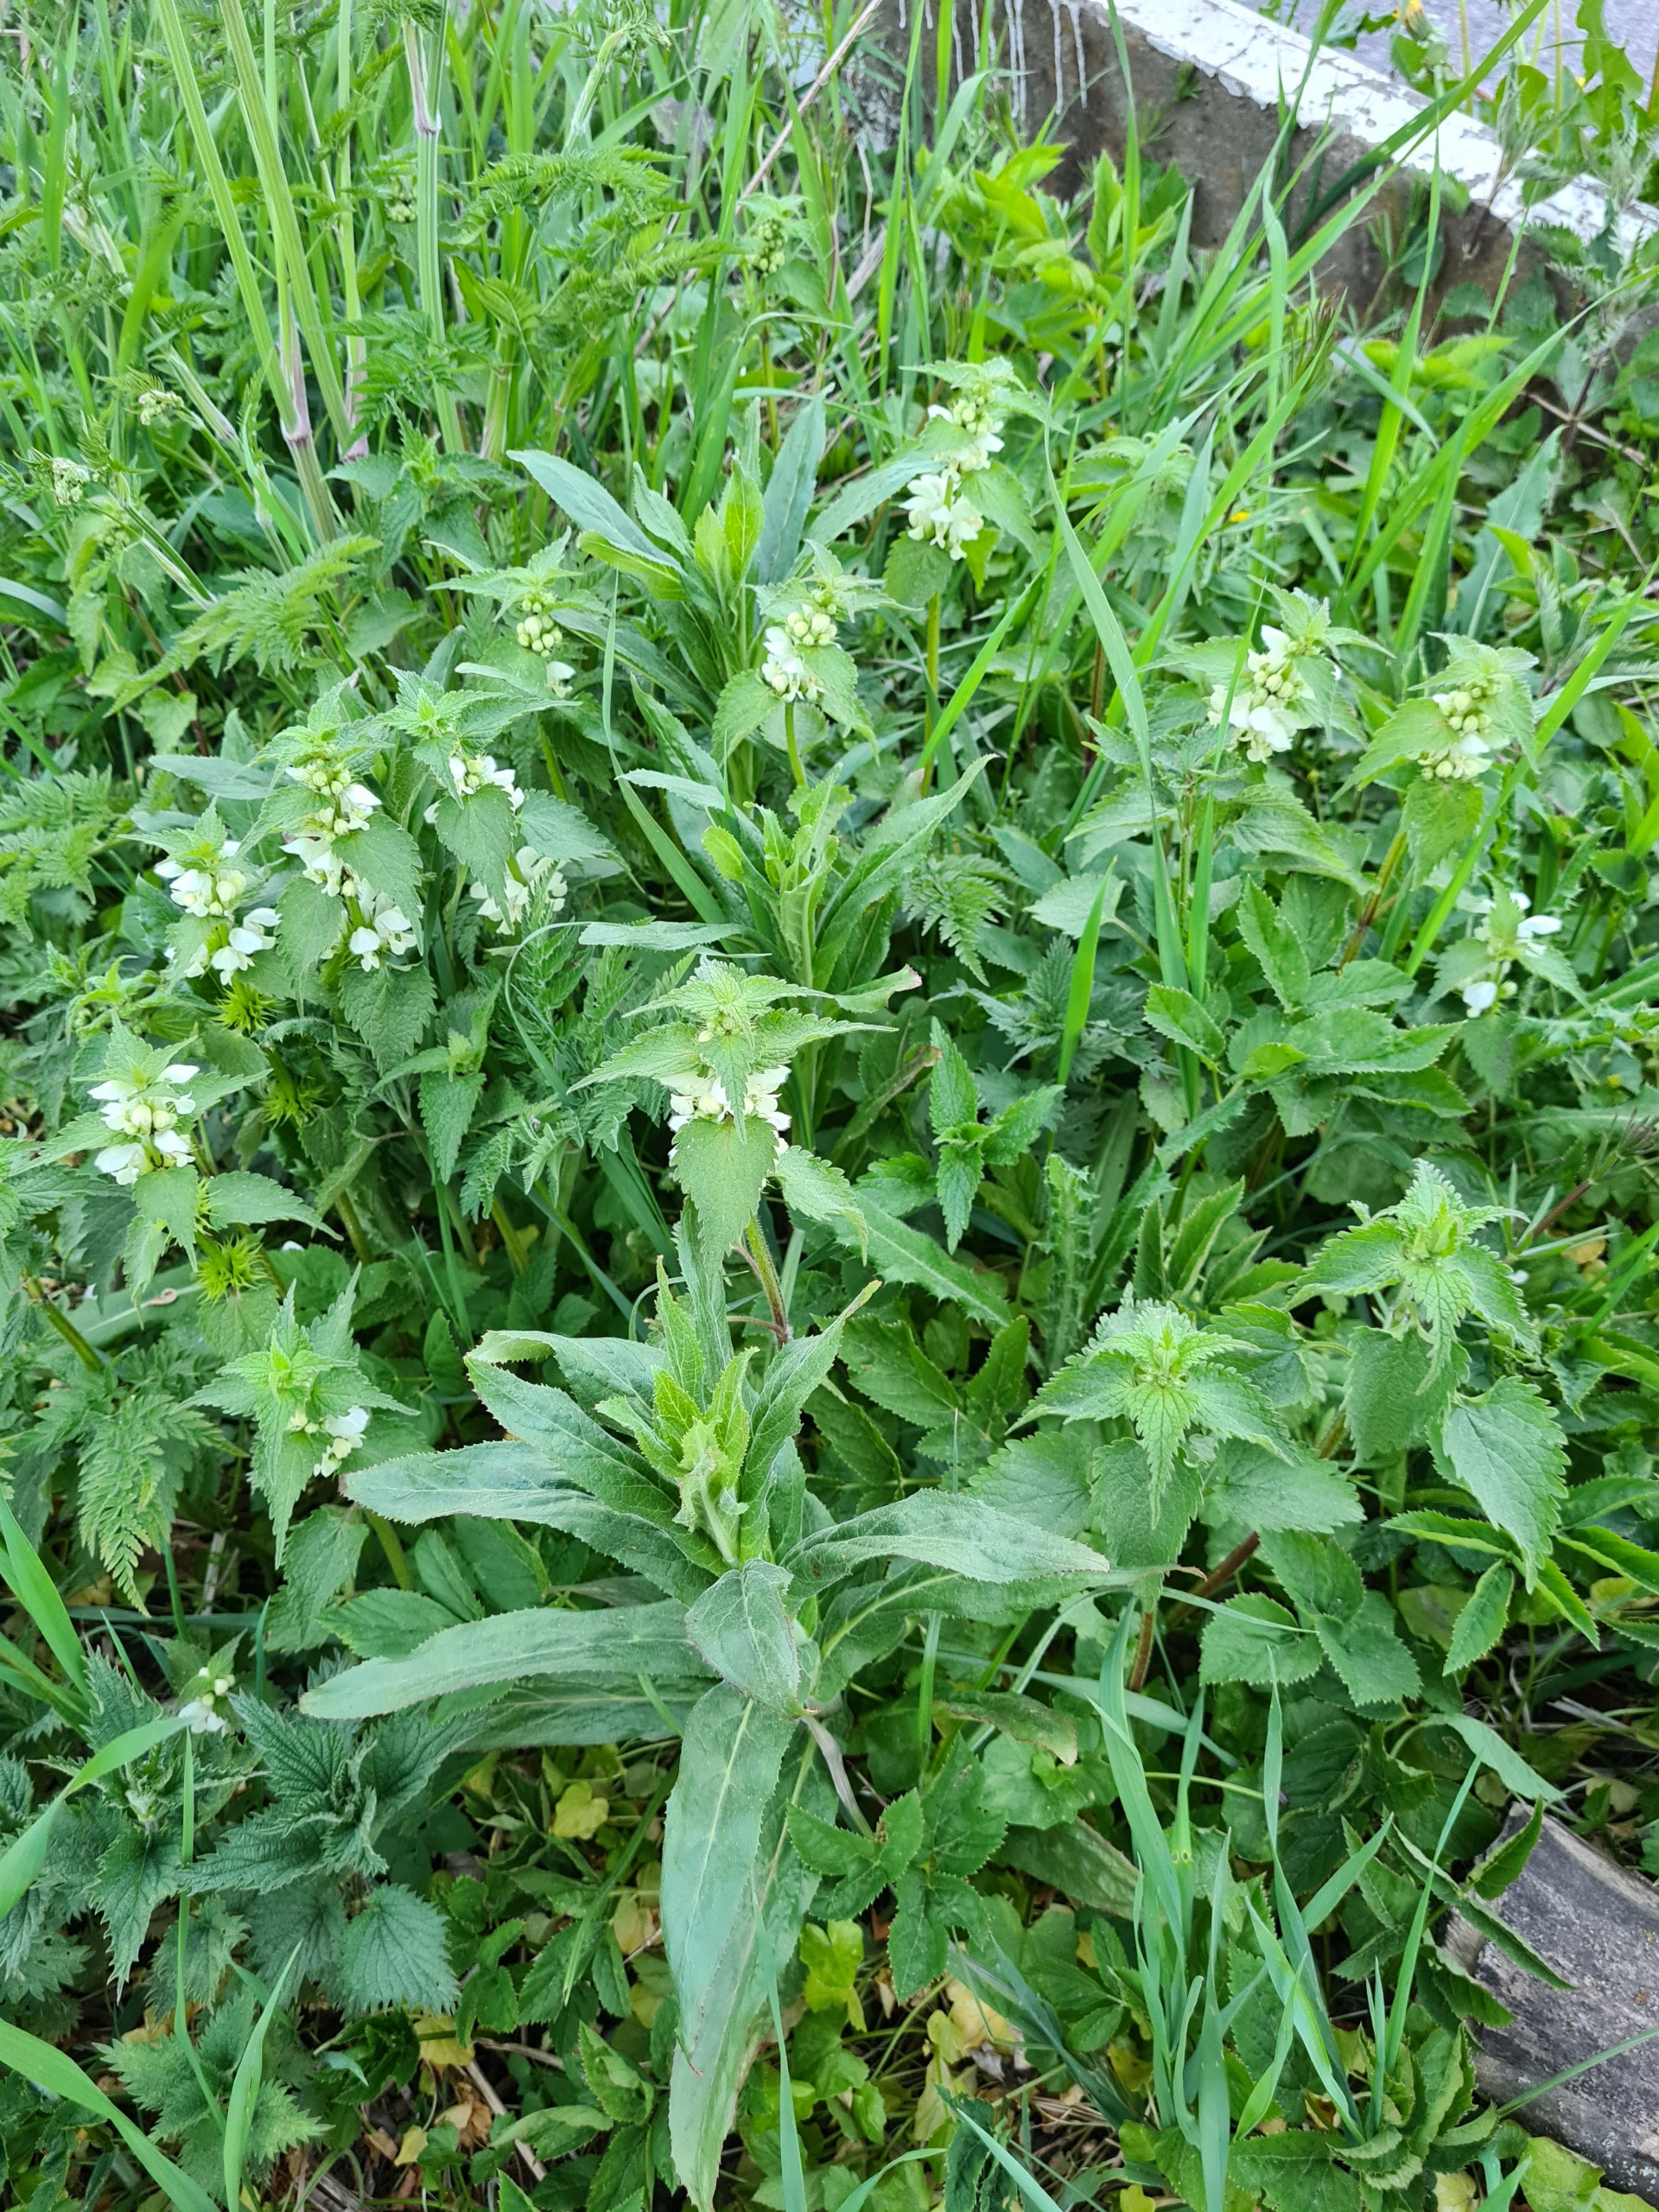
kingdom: Plantae
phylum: Tracheophyta
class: Magnoliopsida
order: Lamiales
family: Lamiaceae
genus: Lamium
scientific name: Lamium album
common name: Døvnælde
